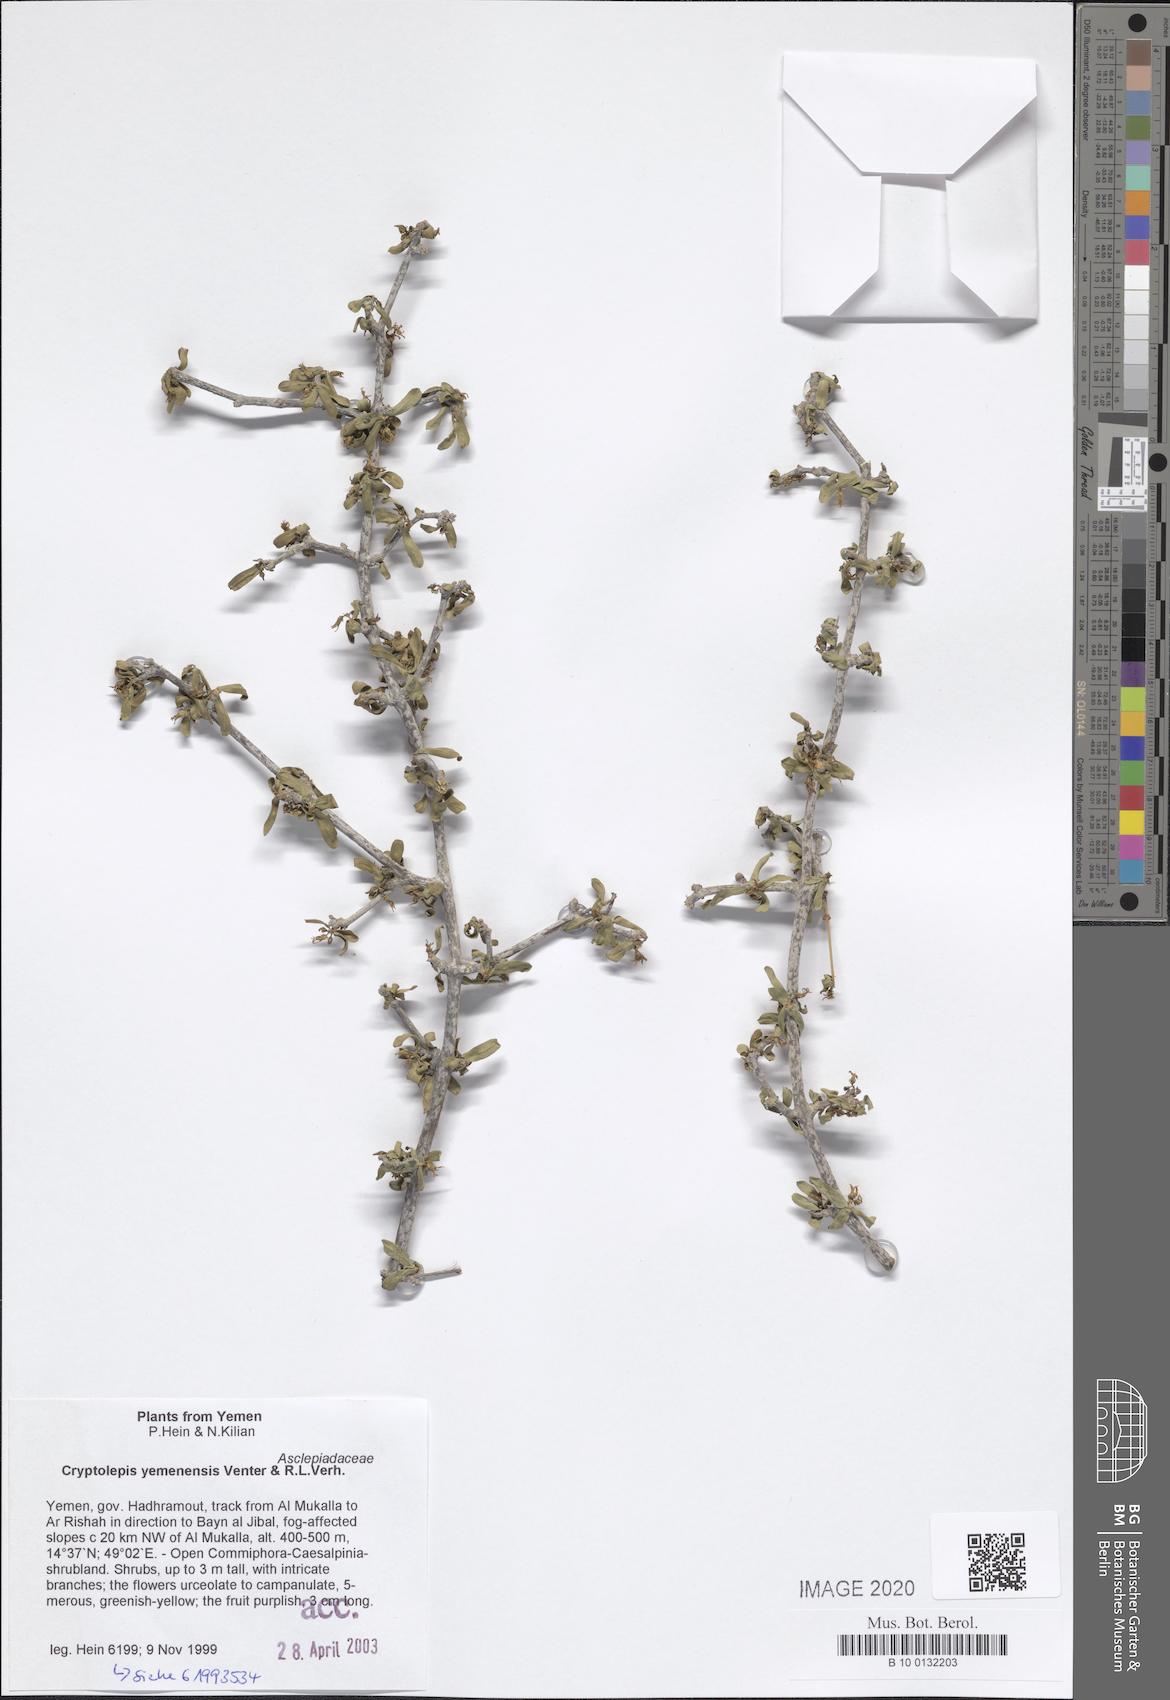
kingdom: Plantae
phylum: Tracheophyta
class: Magnoliopsida
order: Gentianales
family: Apocynaceae
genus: Cryptolepis
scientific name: Cryptolepis yemenensis
